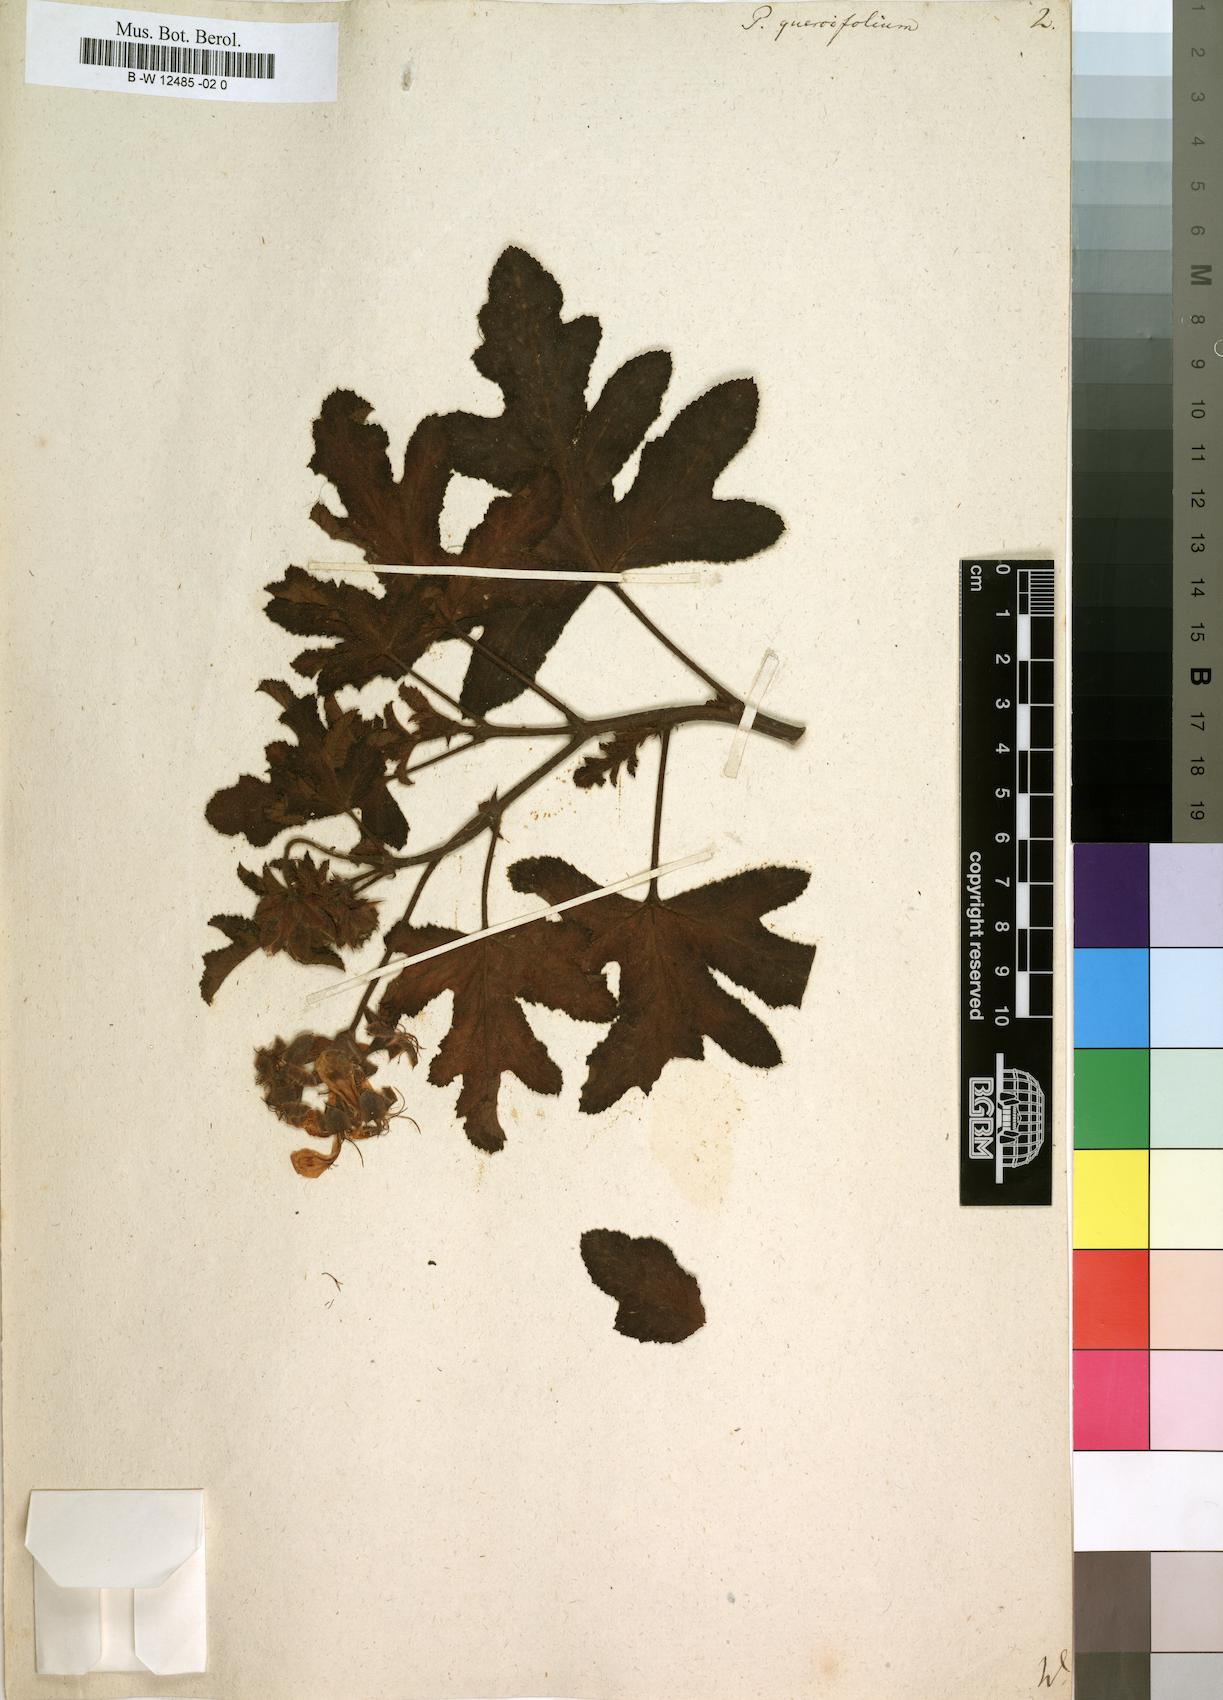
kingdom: Plantae
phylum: Tracheophyta
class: Magnoliopsida
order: Geraniales
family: Geraniaceae
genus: Pelargonium
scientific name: Pelargonium quercifolium
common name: Oakleaf geranium
